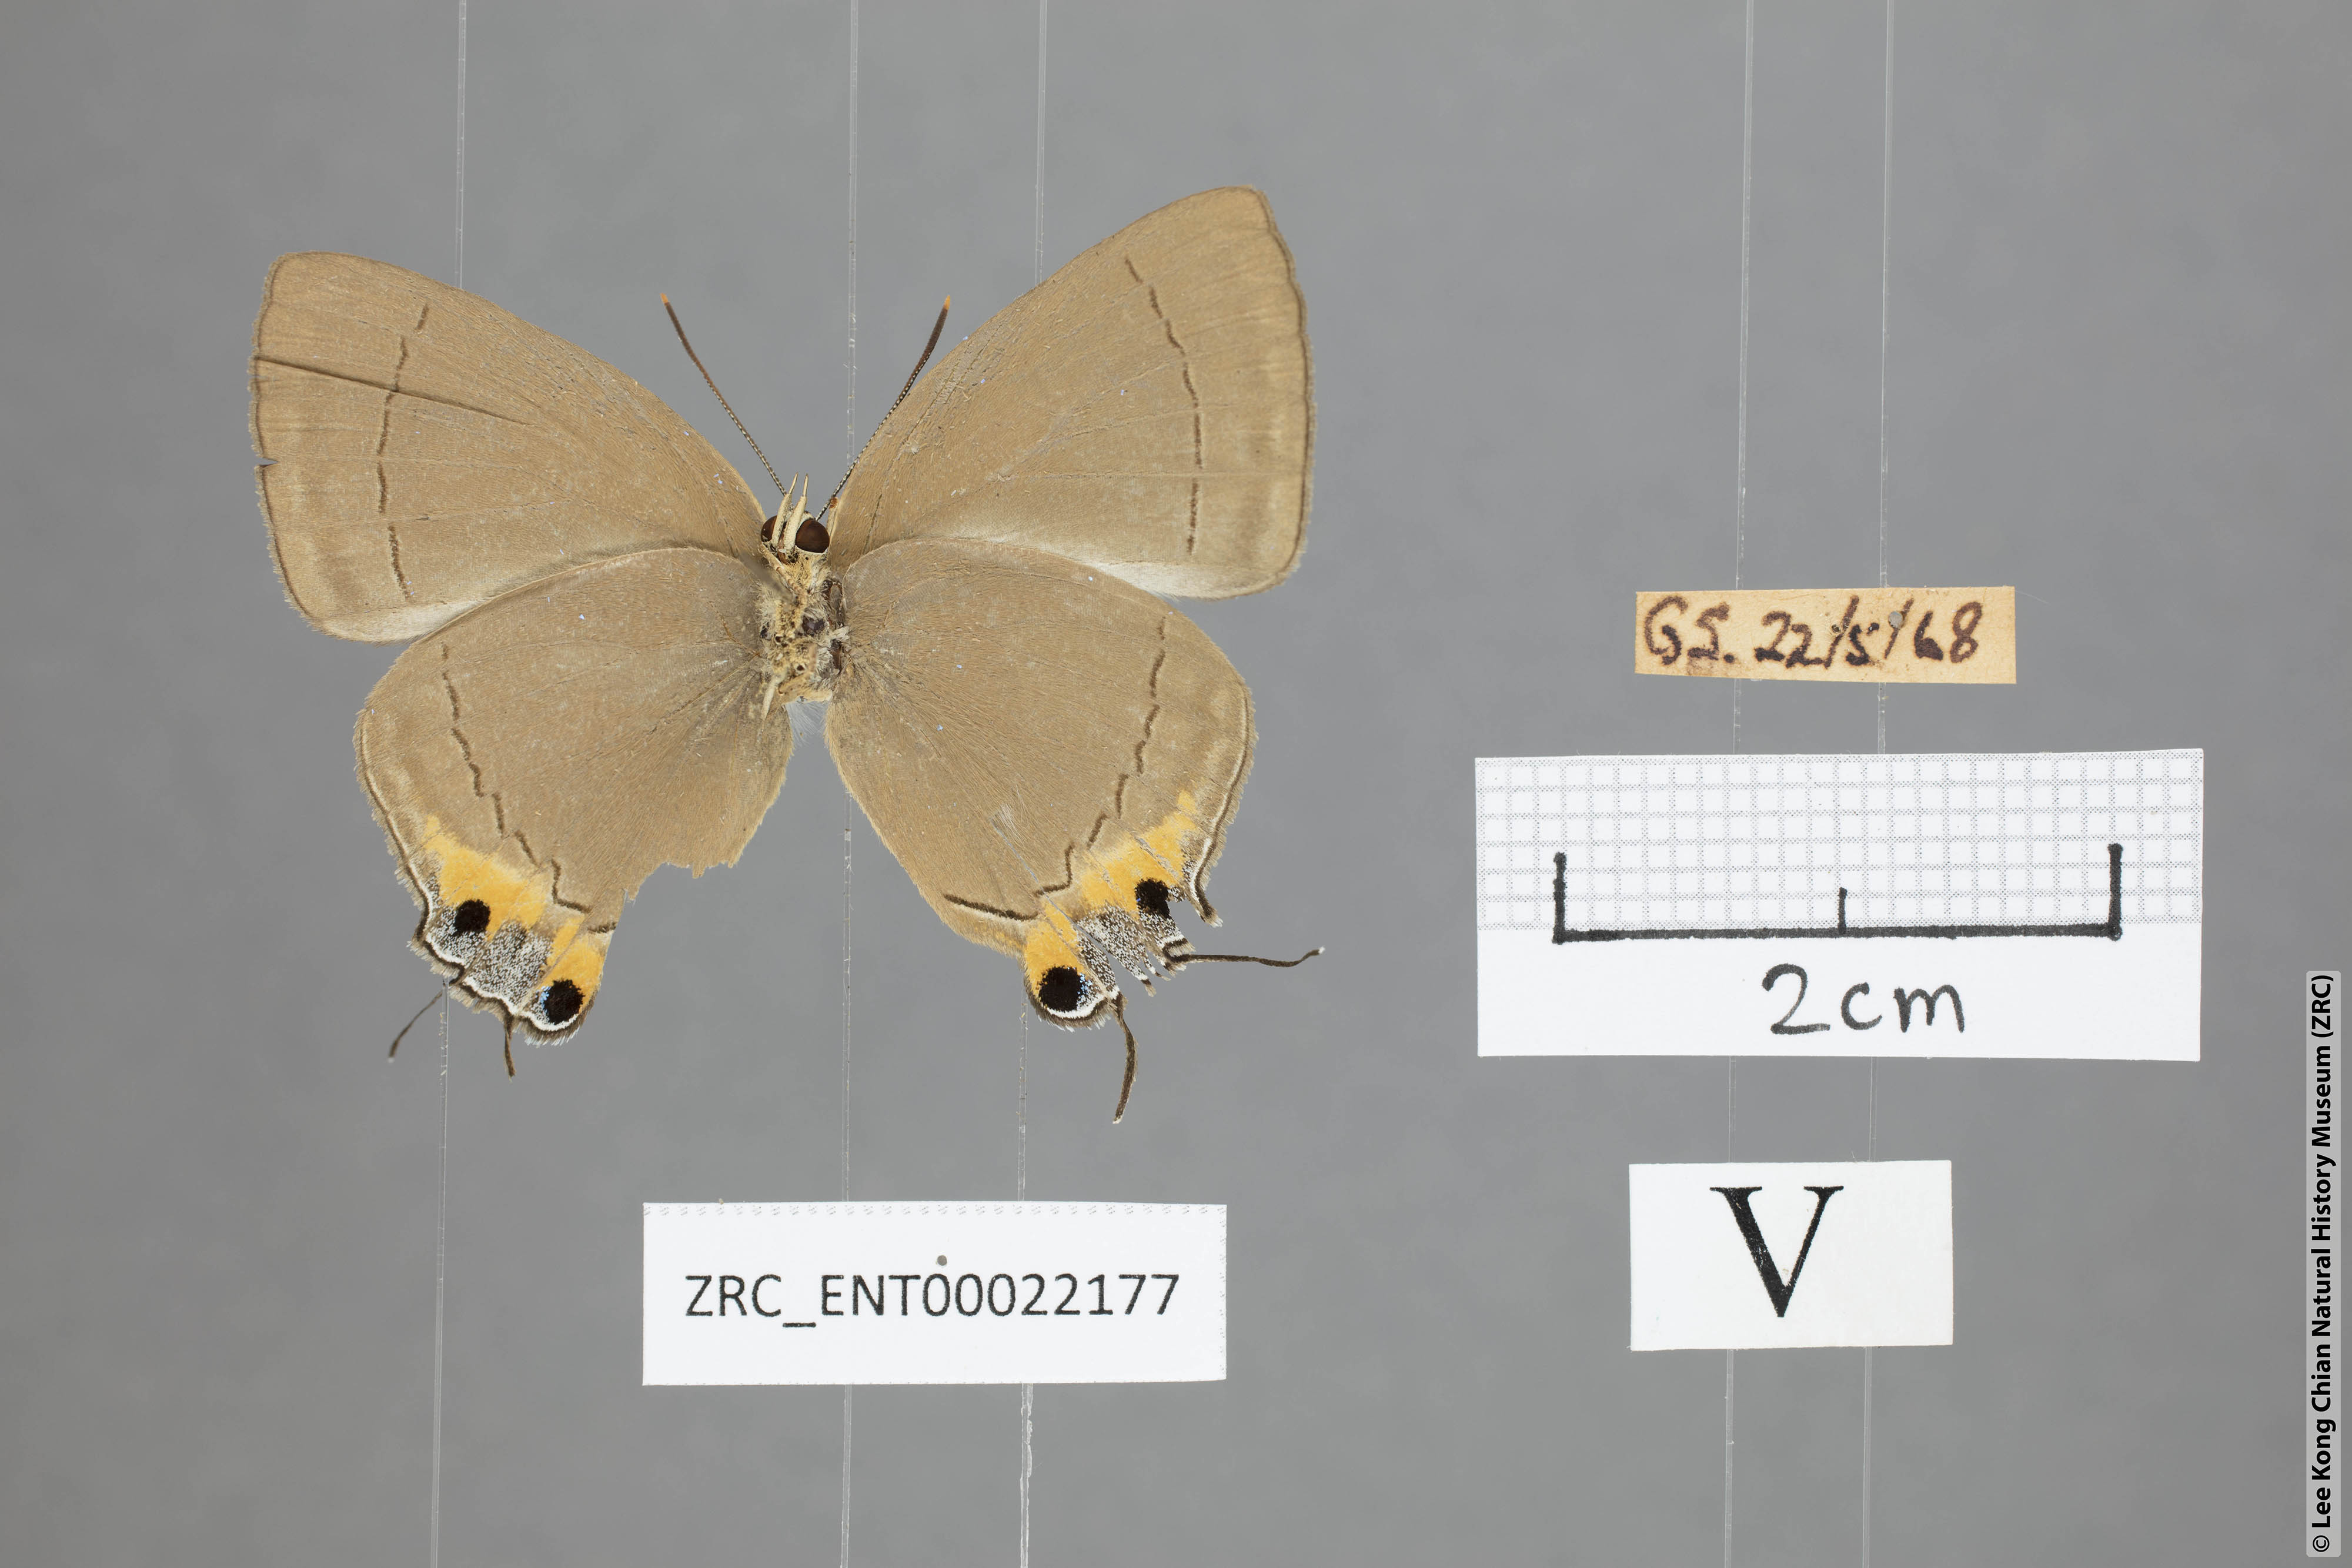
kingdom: Animalia
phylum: Arthropoda
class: Insecta
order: Lepidoptera
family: Lycaenidae
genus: Tajuria
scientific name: Tajuria deudaix
